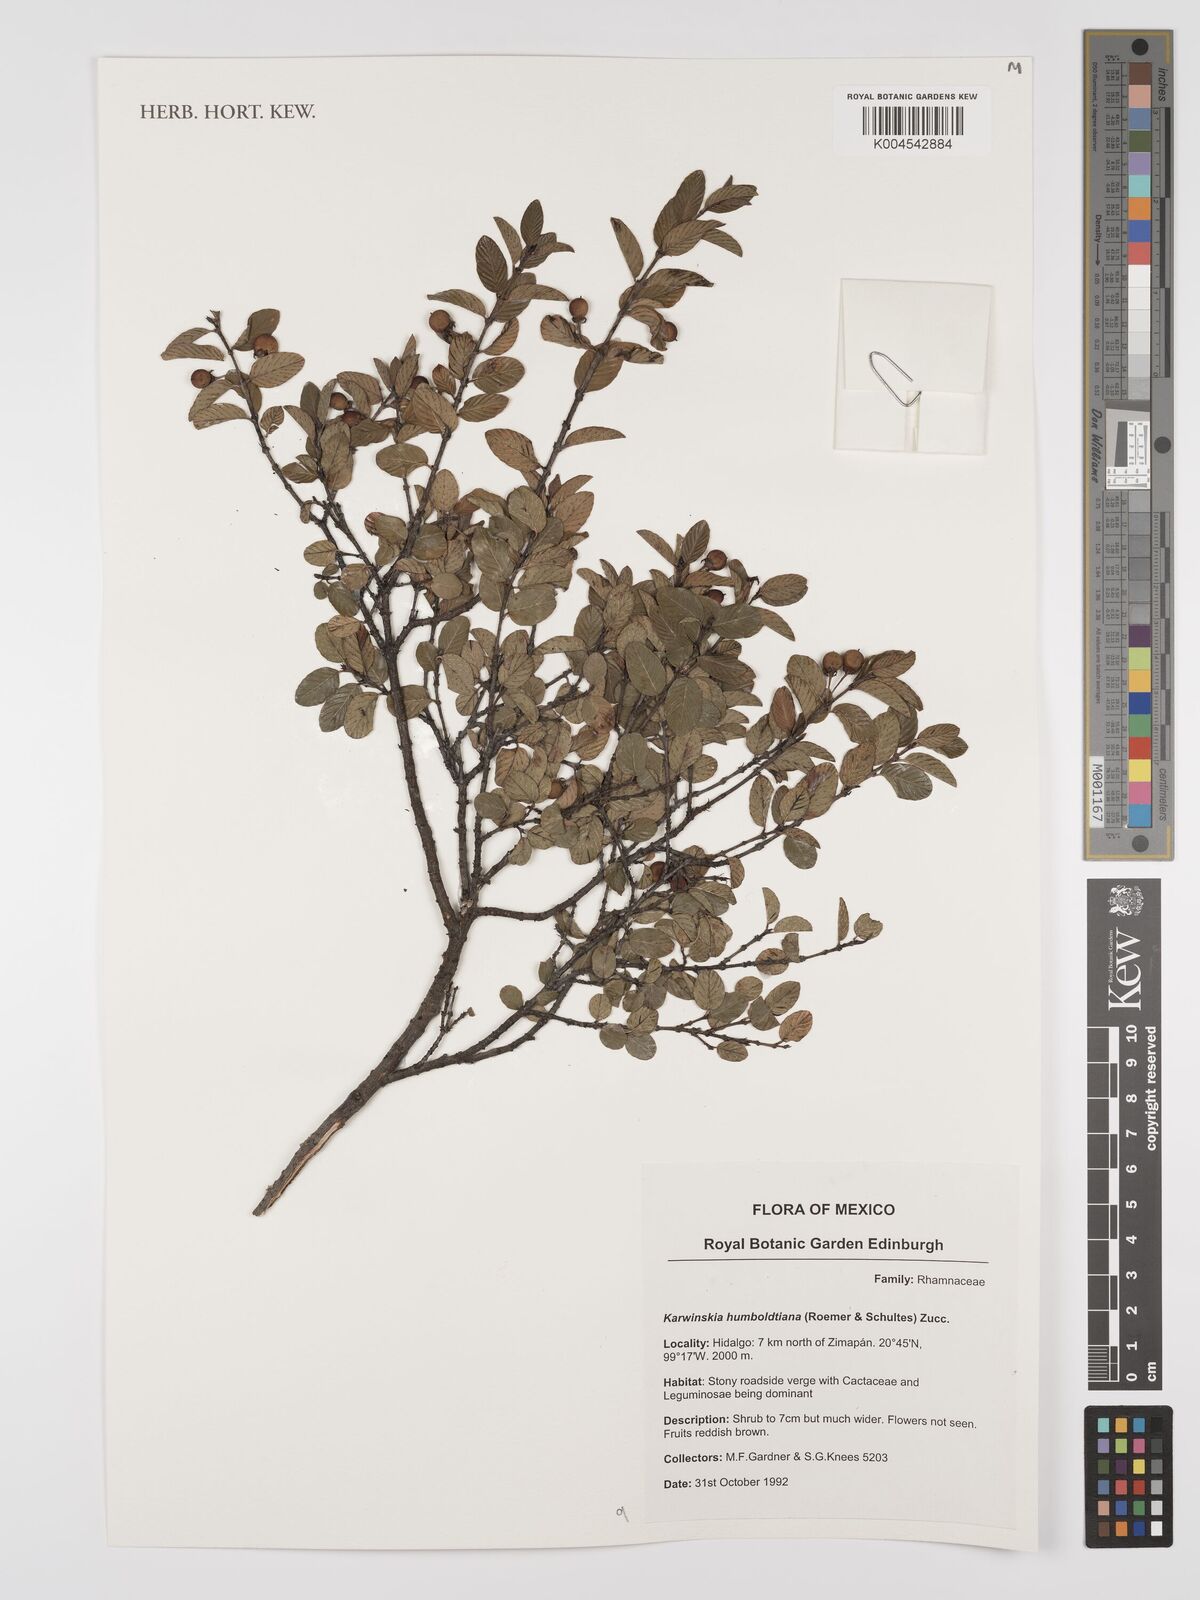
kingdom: Plantae
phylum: Tracheophyta
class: Magnoliopsida
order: Rosales
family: Rhamnaceae
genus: Karwinskia
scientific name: Karwinskia humboldtiana
